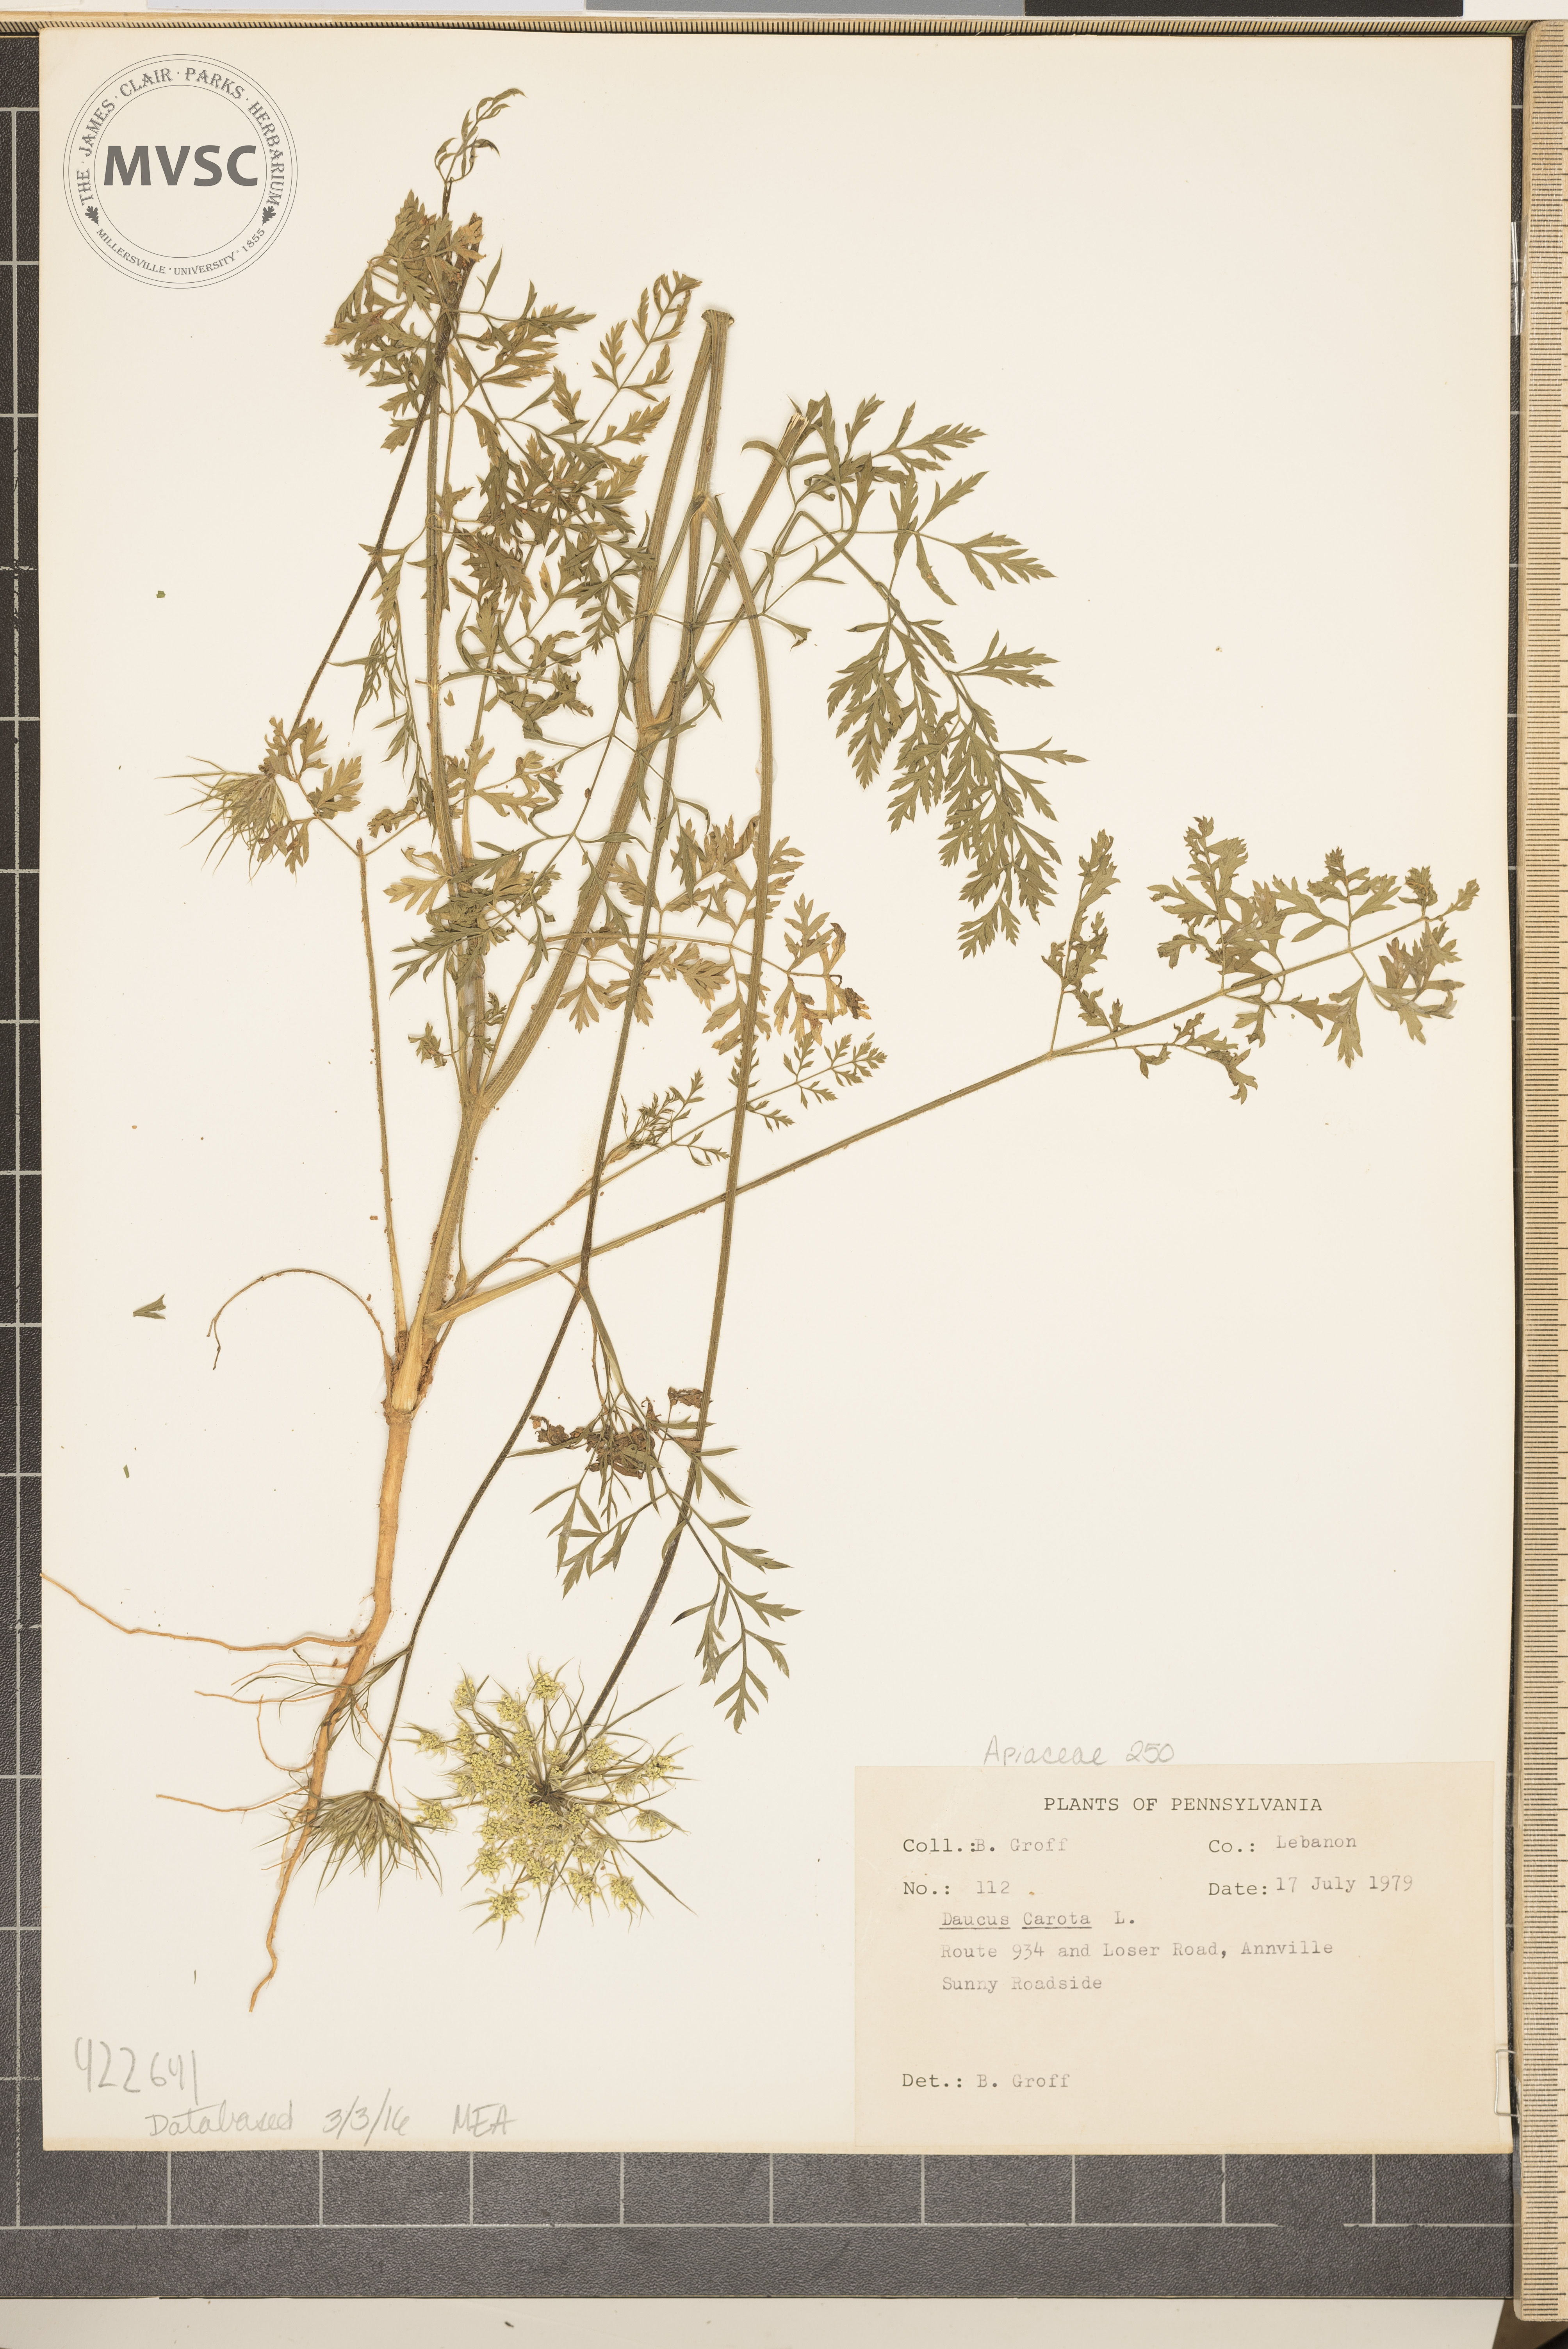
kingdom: Plantae
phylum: Tracheophyta
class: Magnoliopsida
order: Apiales
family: Apiaceae
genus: Daucus
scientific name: Daucus carota
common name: Wild carrot
